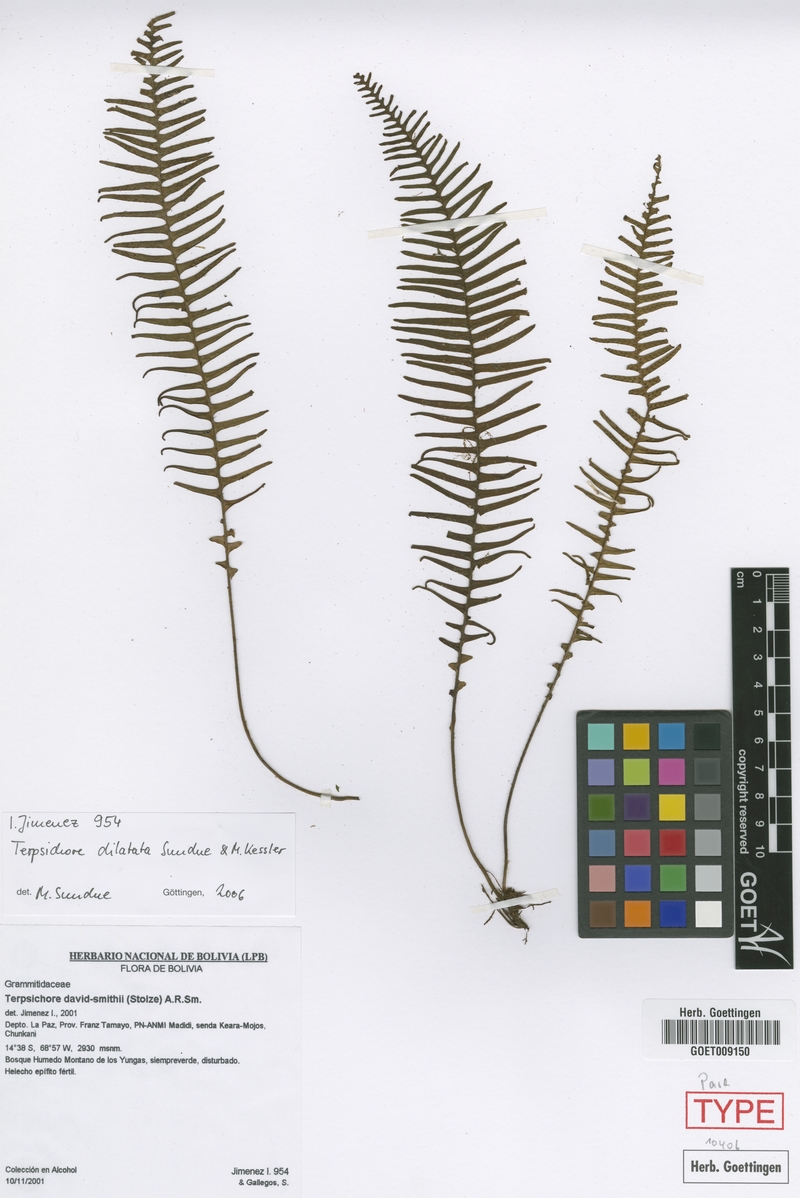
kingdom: Plantae
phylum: Tracheophyta
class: Polypodiopsida
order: Polypodiales
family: Polypodiaceae
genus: Ascogrammitis
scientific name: Ascogrammitis dilatata
